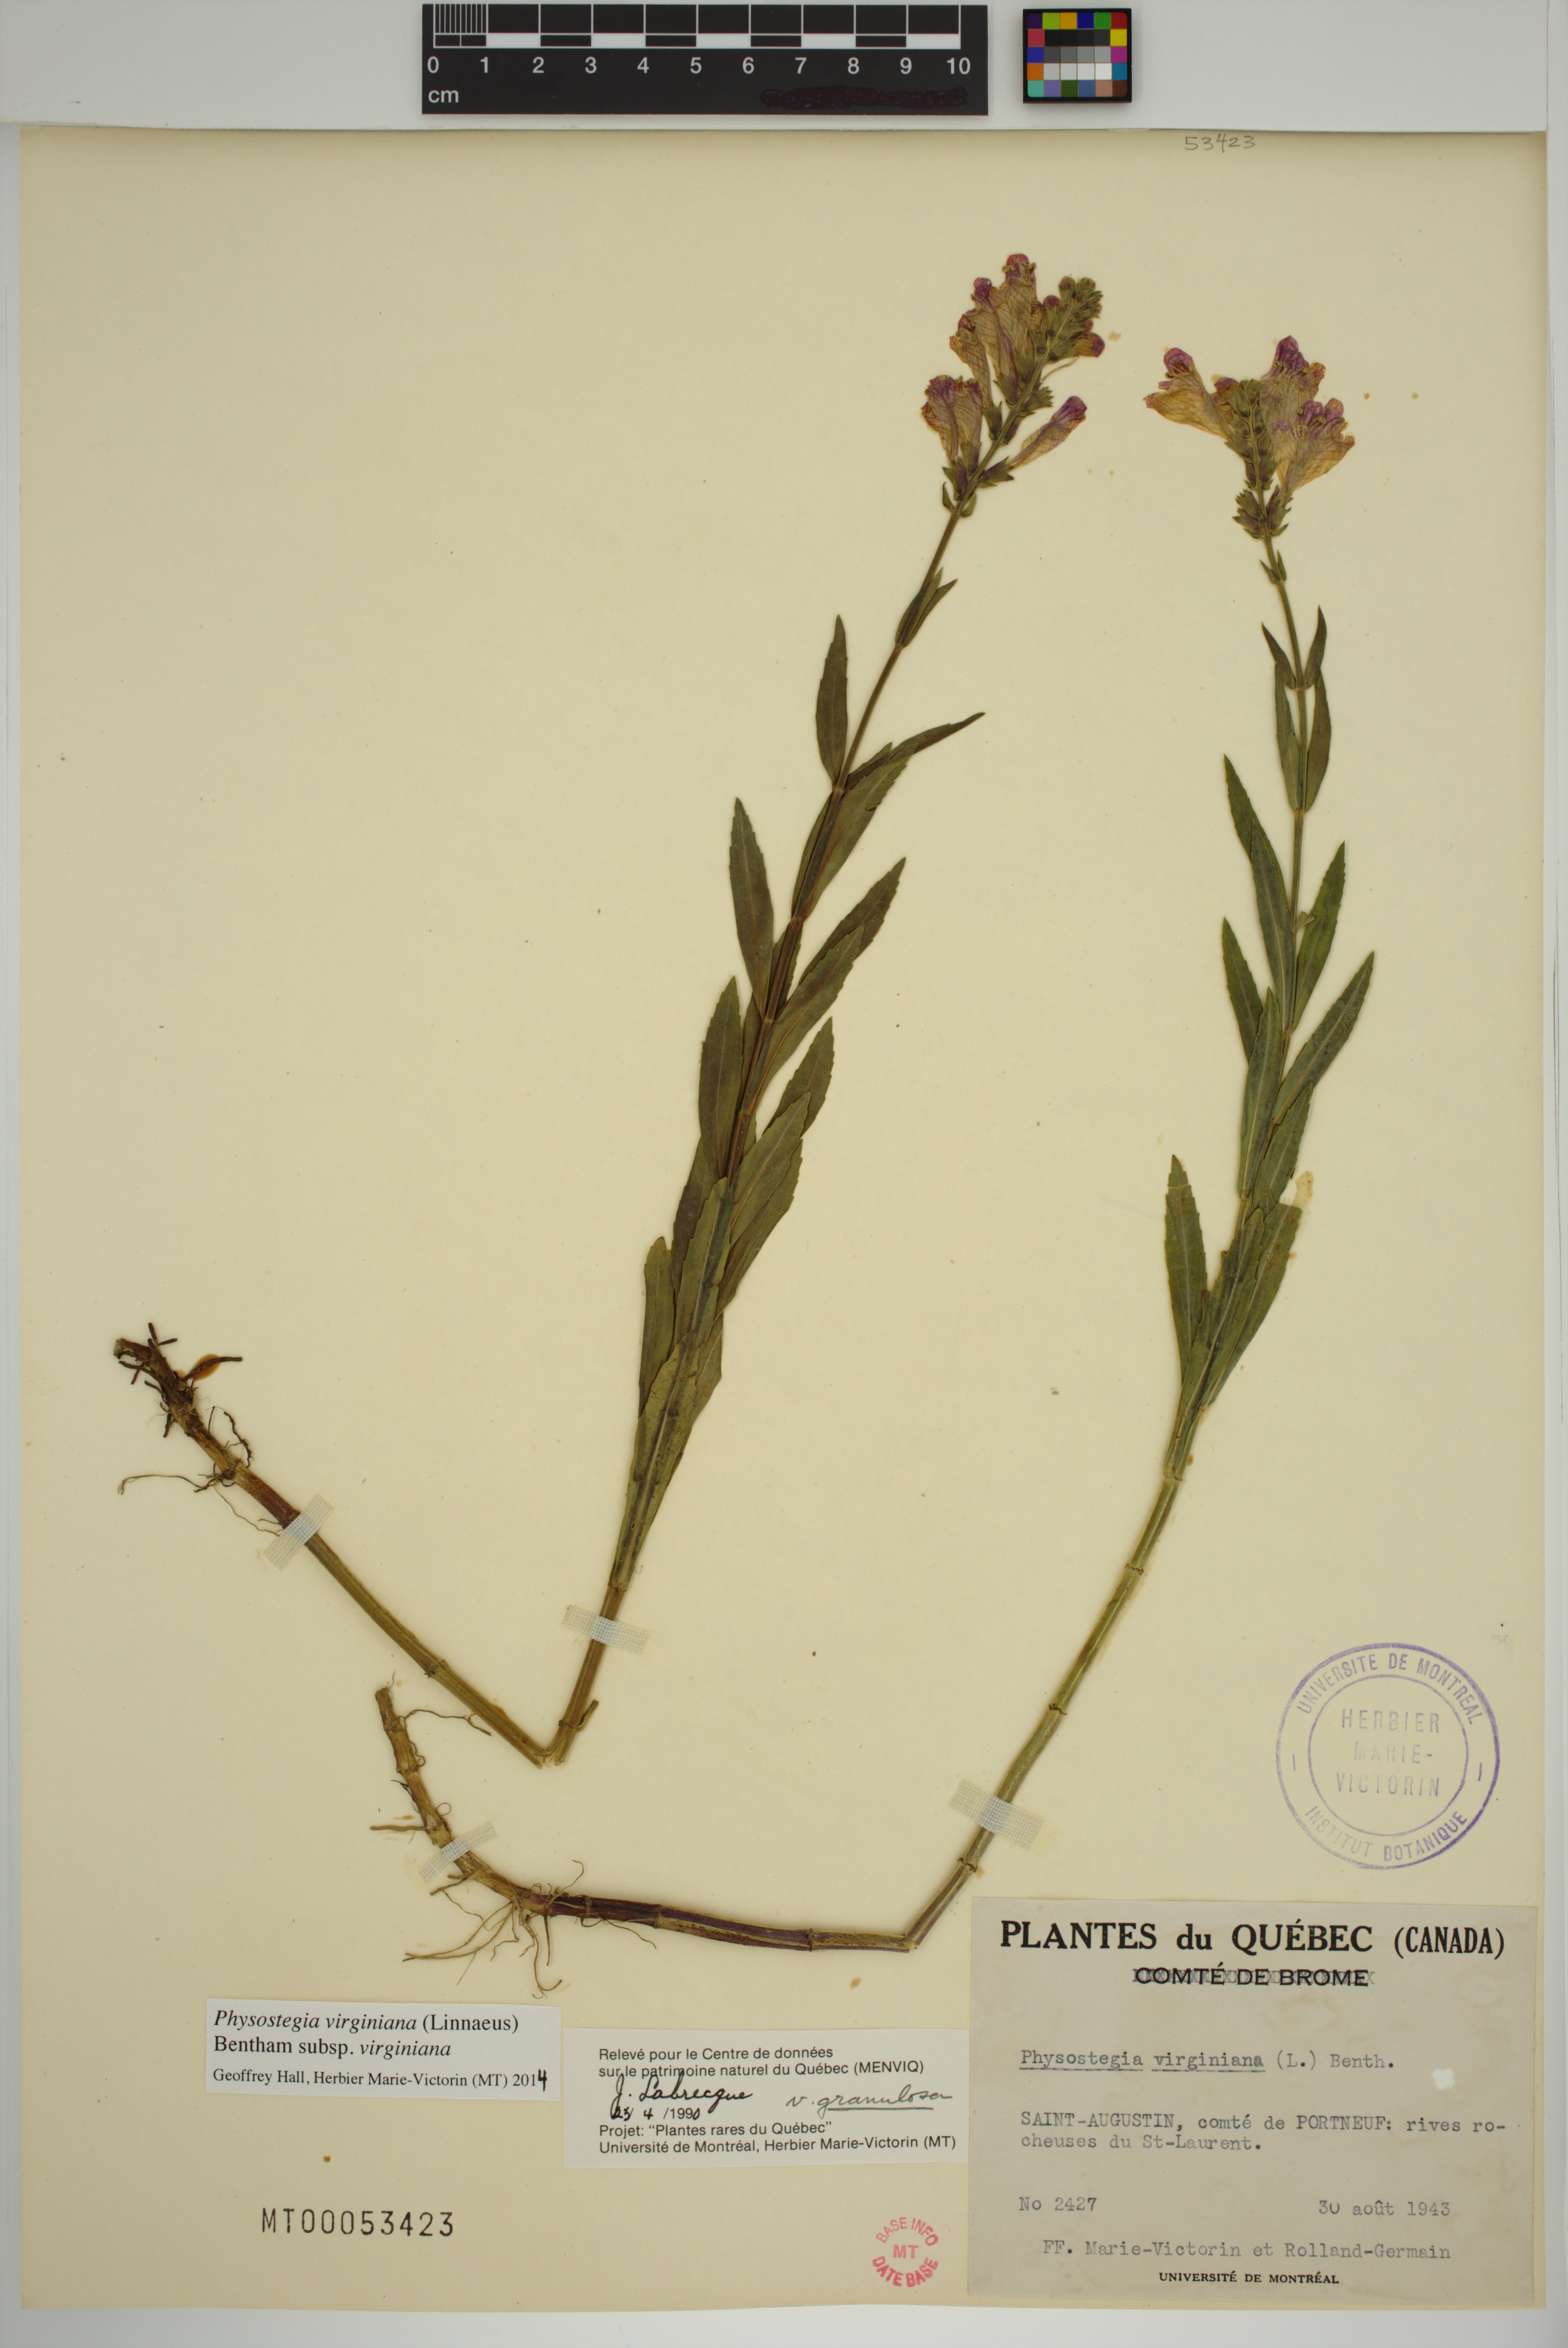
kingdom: Plantae
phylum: Tracheophyta
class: Magnoliopsida
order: Lamiales
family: Lamiaceae
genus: Physostegia
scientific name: Physostegia virginiana
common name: Obedient-plant
